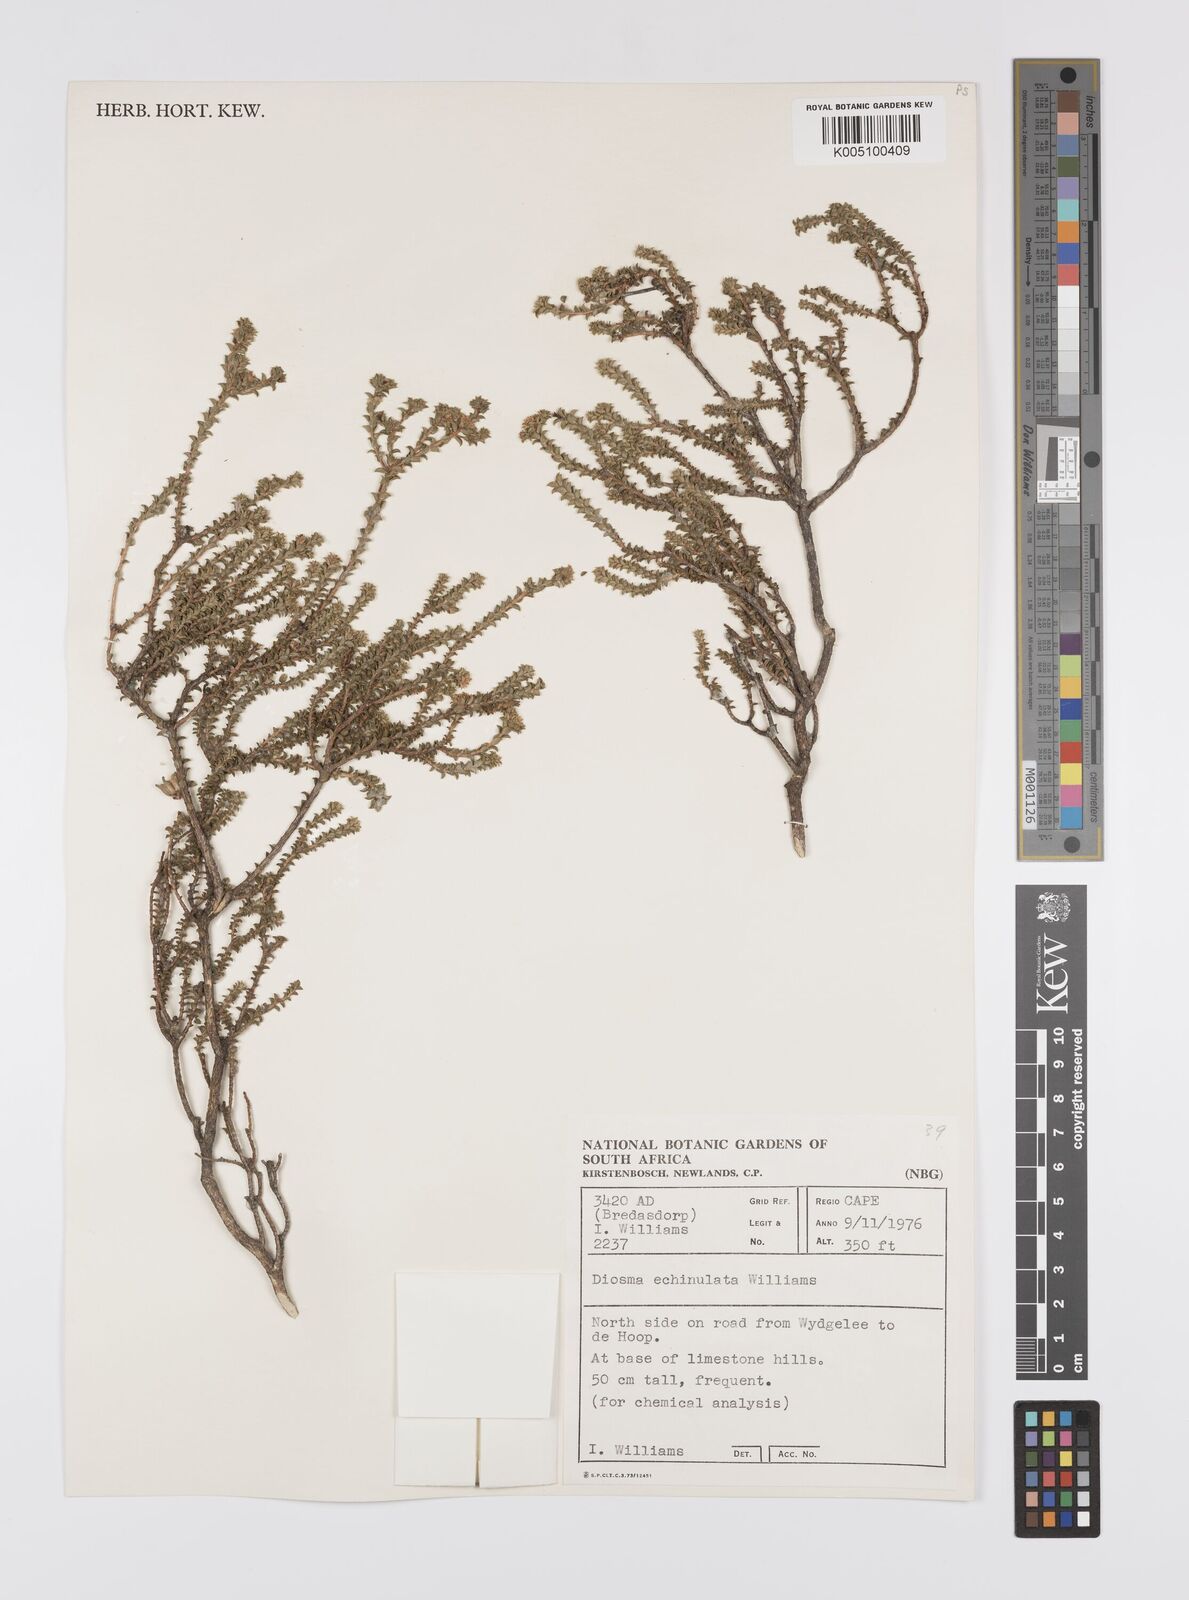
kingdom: Plantae
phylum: Tracheophyta
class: Magnoliopsida
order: Sapindales
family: Rutaceae
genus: Diosma
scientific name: Diosma echinulata
